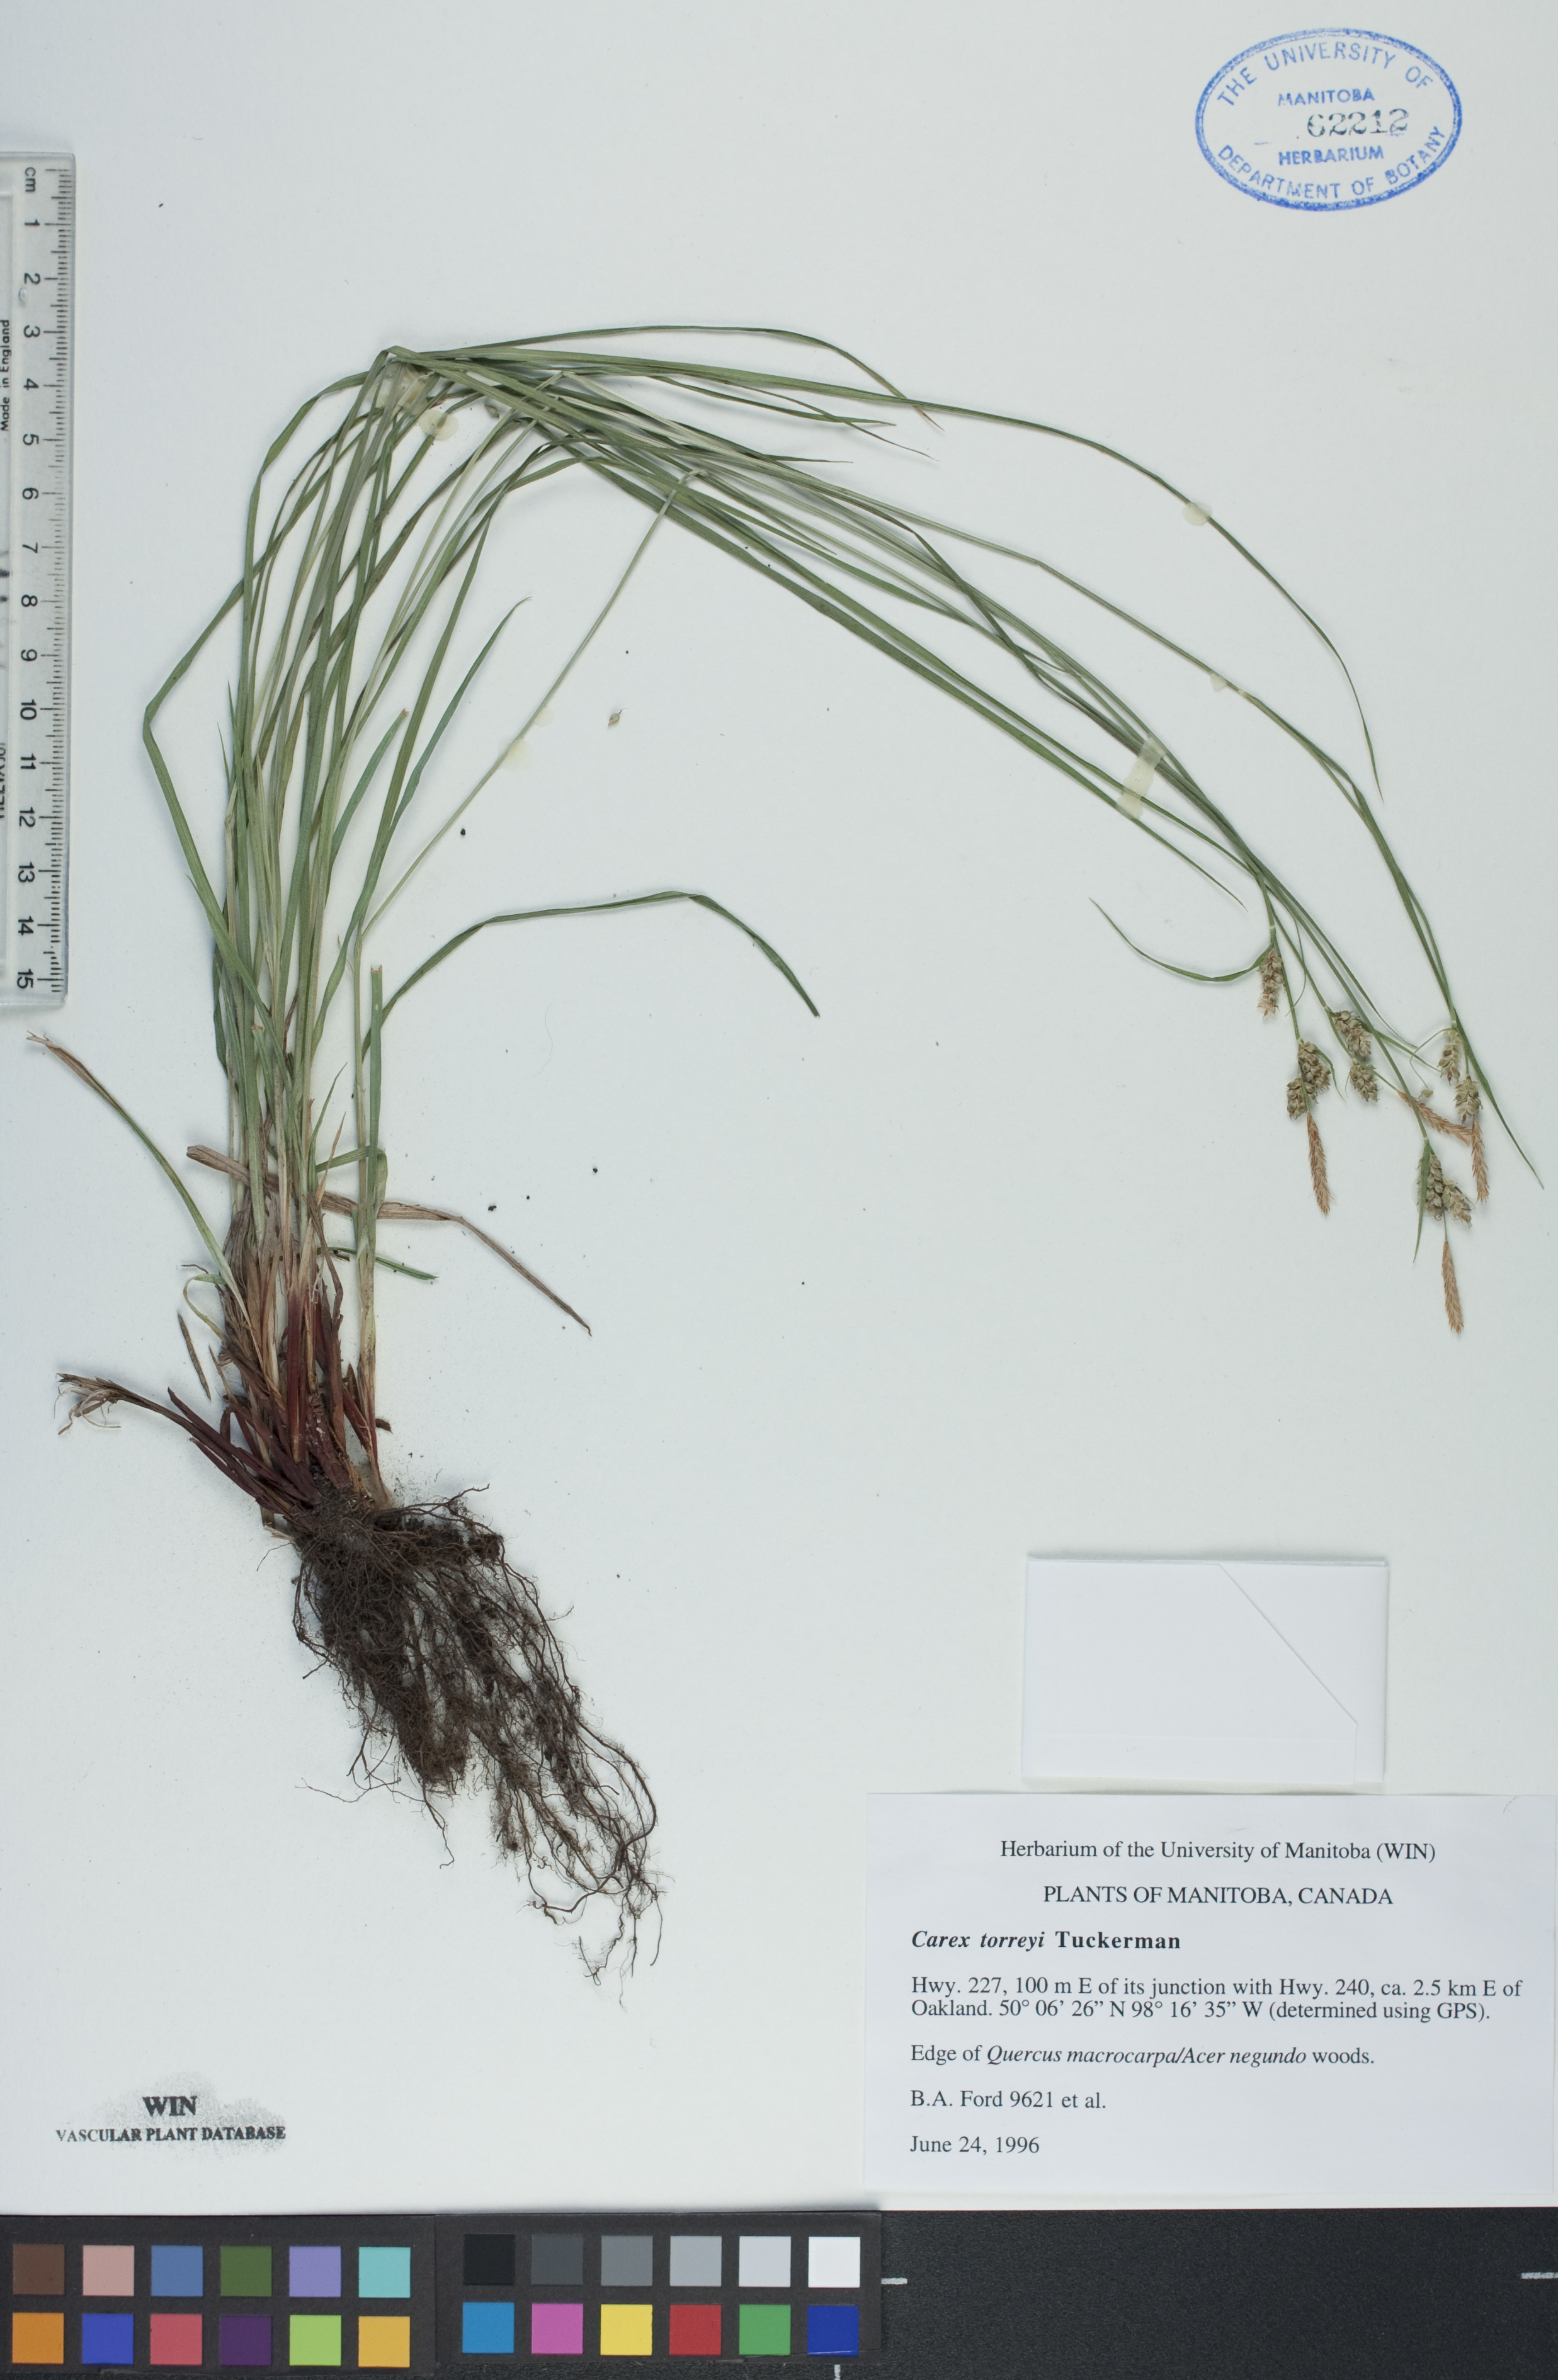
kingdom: Plantae
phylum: Tracheophyta
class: Liliopsida
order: Poales
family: Cyperaceae
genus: Carex
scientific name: Carex torreyi
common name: Torrey's sedge
